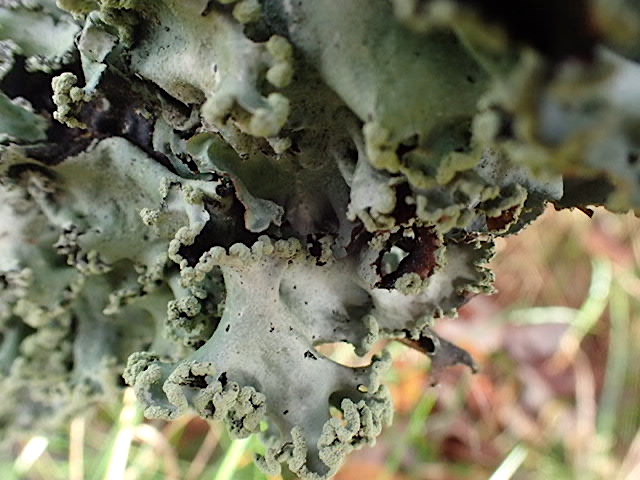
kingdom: Fungi
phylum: Ascomycota
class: Lecanoromycetes
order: Lecanorales
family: Parmeliaceae
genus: Parmotrema
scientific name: Parmotrema perlatum
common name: trådet skållav
